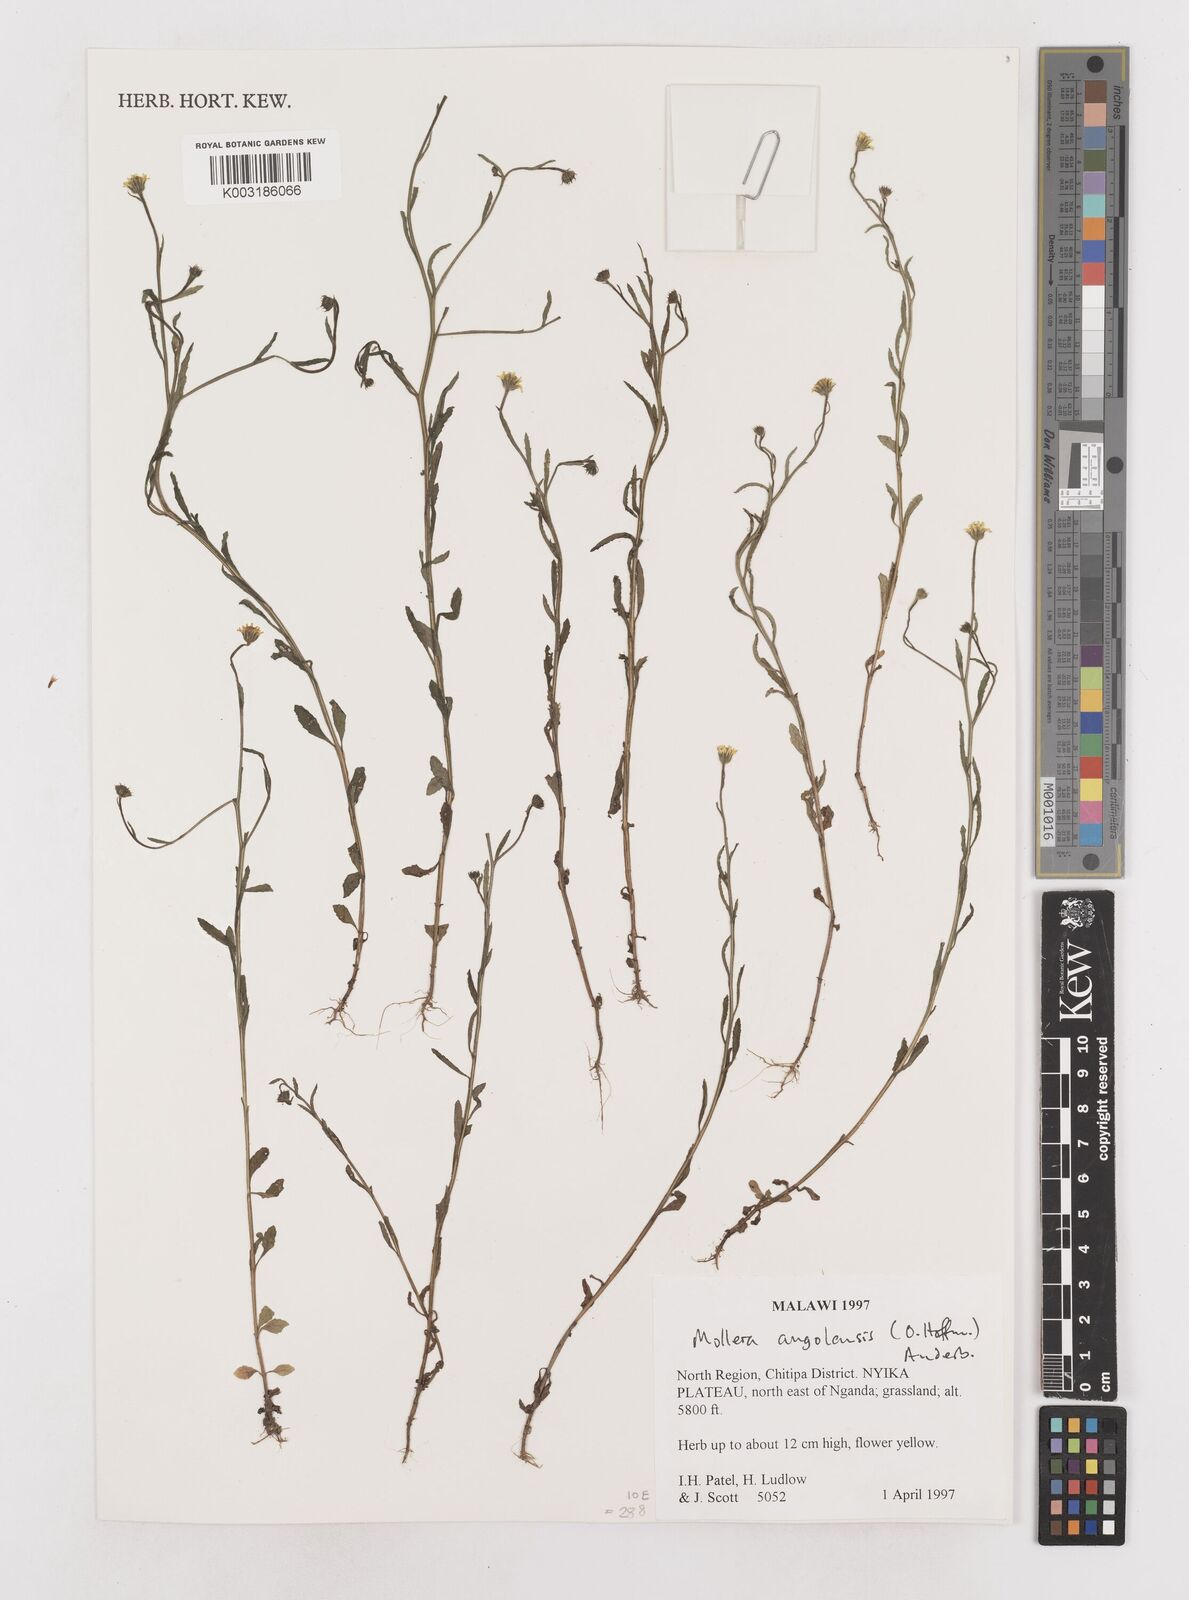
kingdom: Plantae
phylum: Tracheophyta
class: Magnoliopsida
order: Asterales
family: Asteraceae
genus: Calostephane
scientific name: Calostephane angolensis
